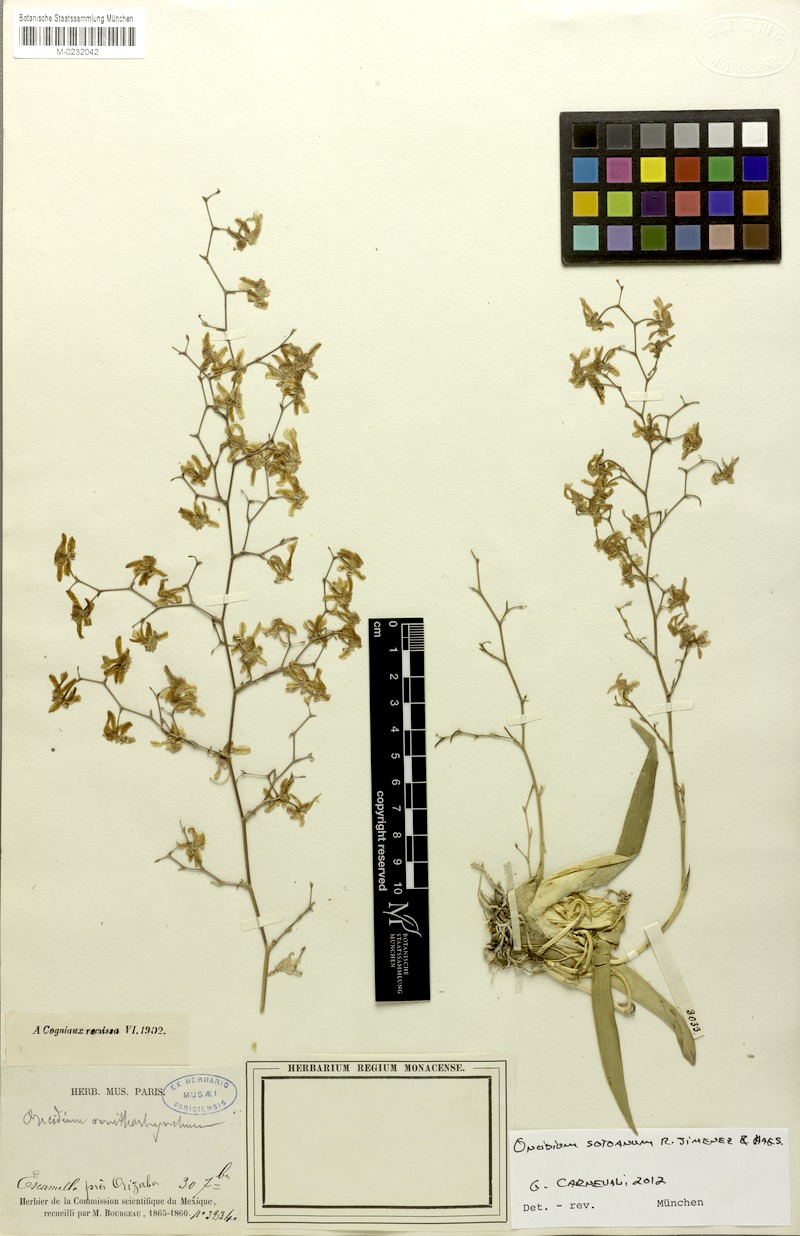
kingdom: Plantae
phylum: Tracheophyta
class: Liliopsida
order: Asparagales
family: Orchidaceae
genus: Oncidium
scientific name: Oncidium sotoanum
